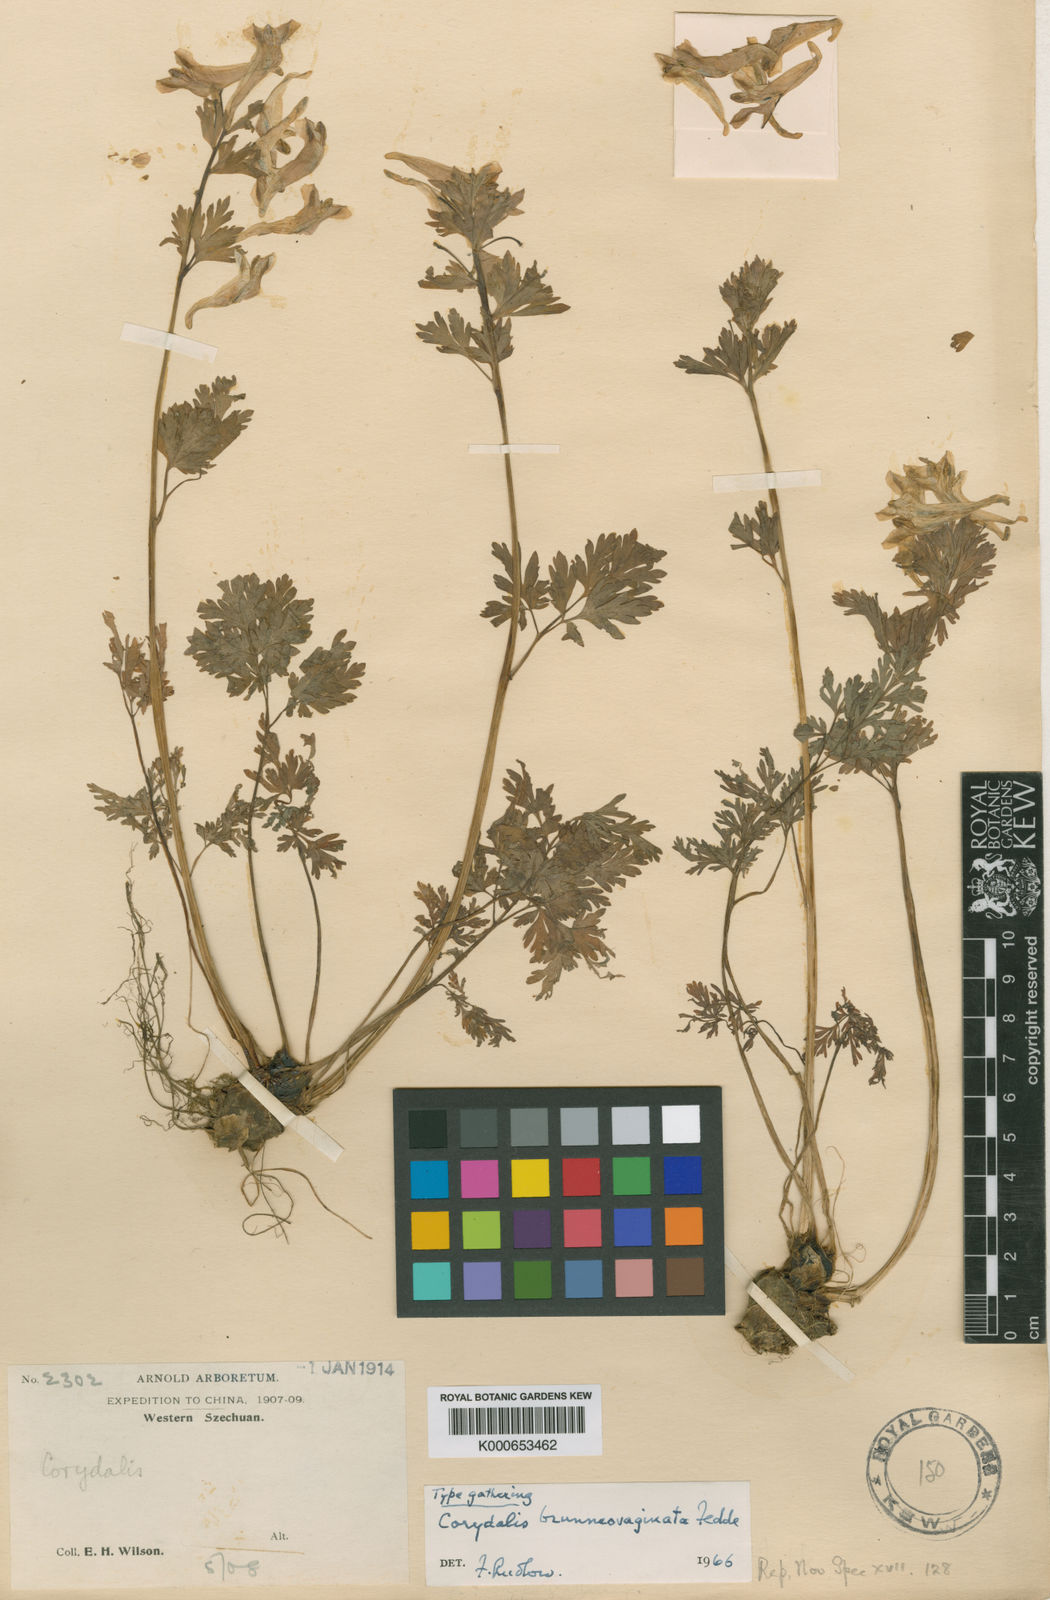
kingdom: Plantae
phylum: Tracheophyta
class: Magnoliopsida
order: Ranunculales
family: Papaveraceae
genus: Corydalis
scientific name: Corydalis brunneovaginata
